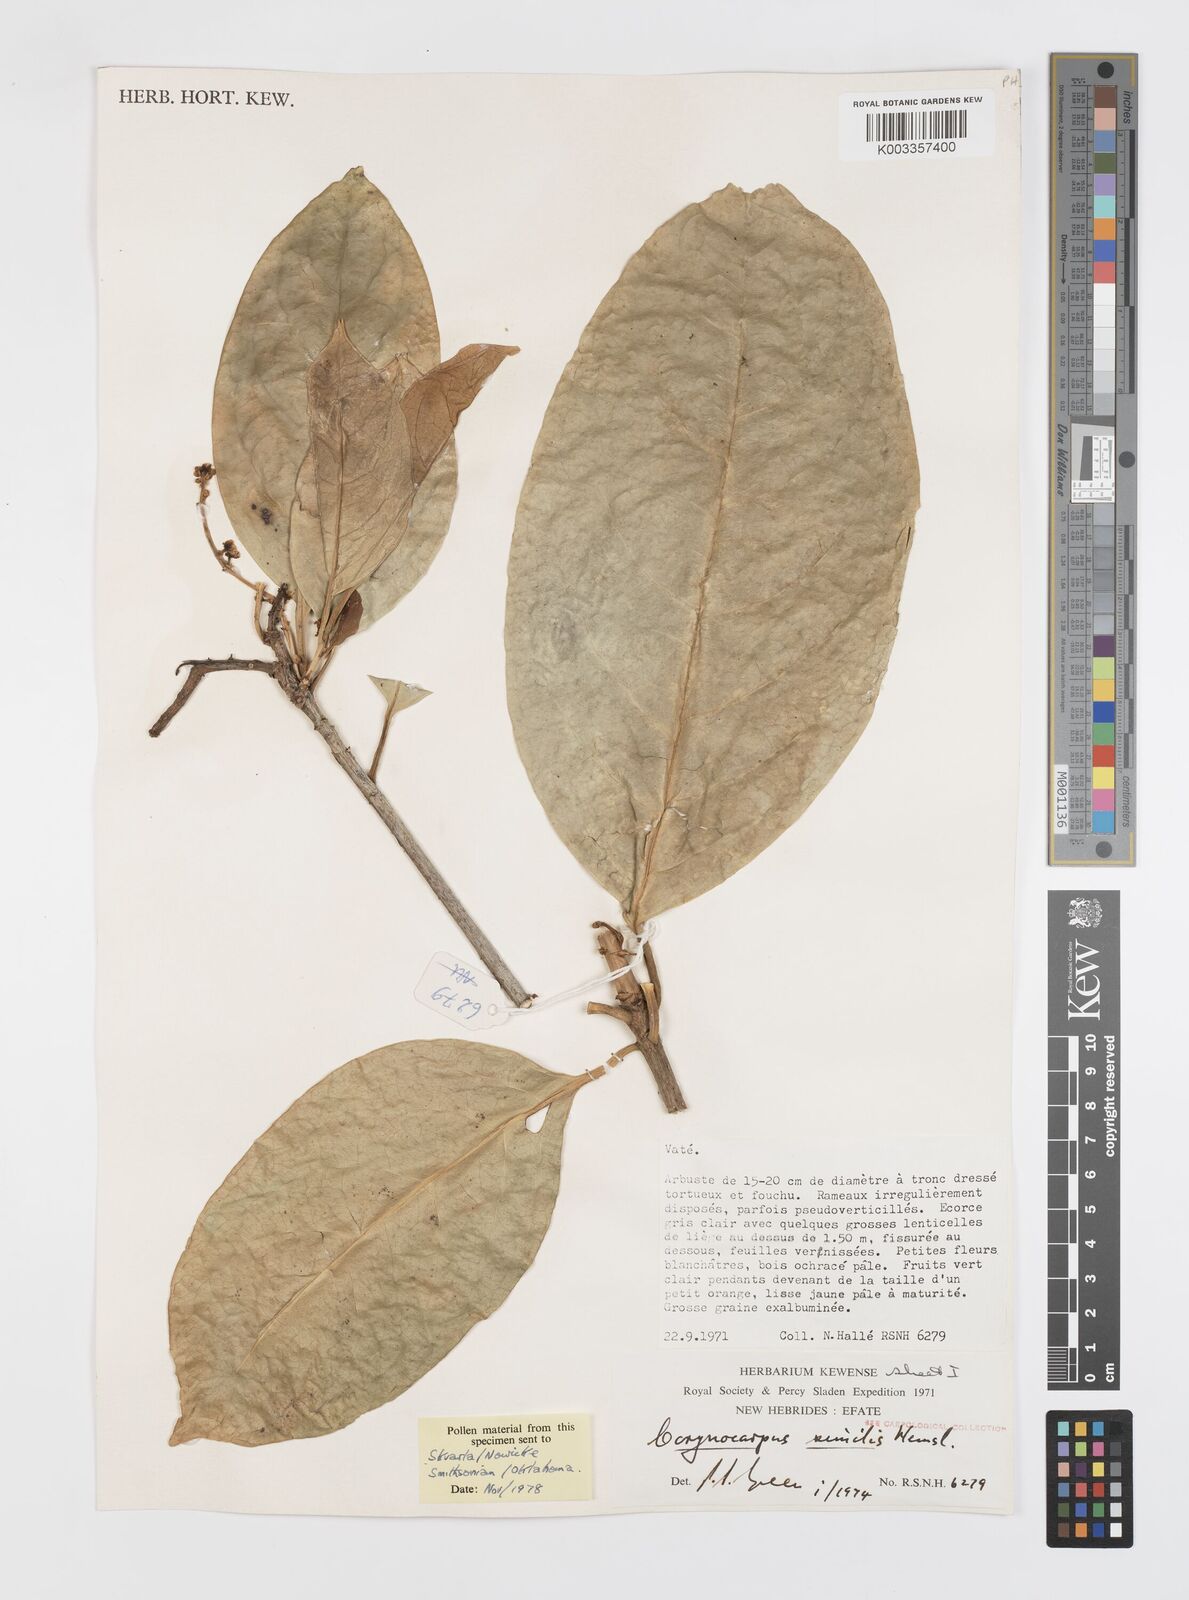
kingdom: Plantae
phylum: Tracheophyta
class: Magnoliopsida
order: Cucurbitales
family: Corynocarpaceae
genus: Corynocarpus
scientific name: Corynocarpus similis
